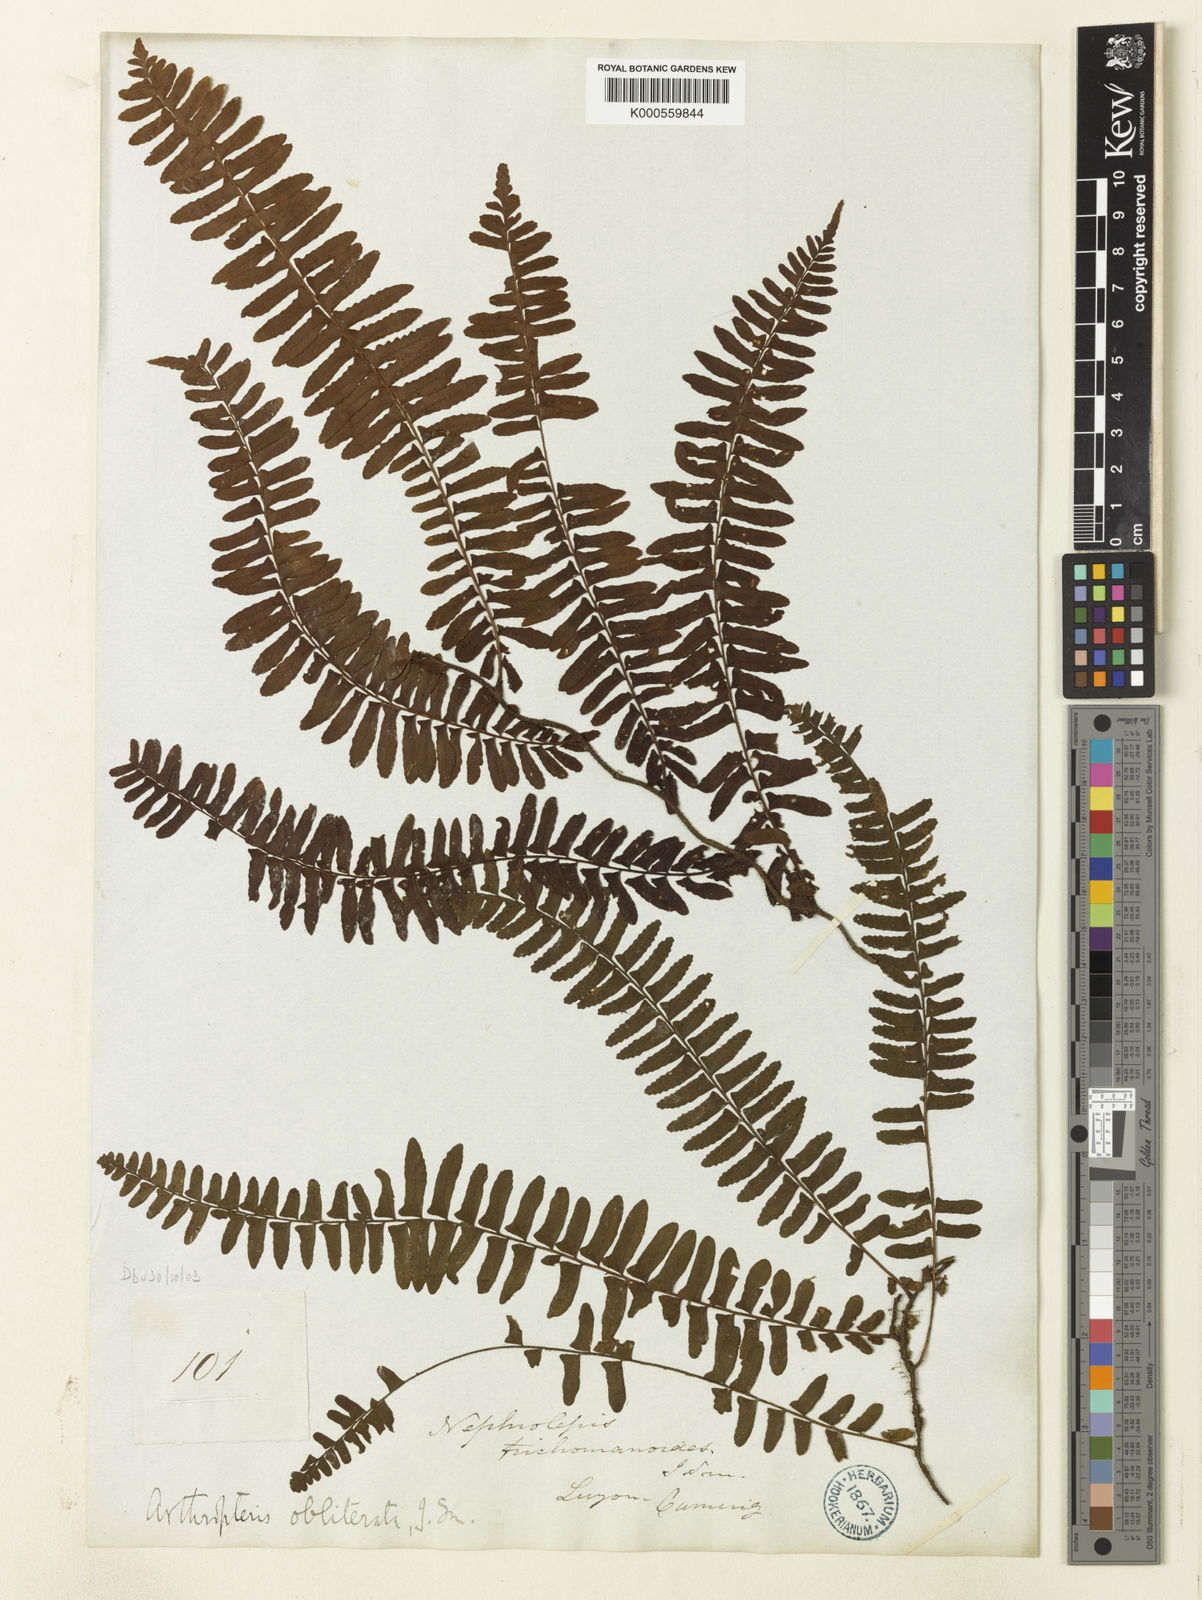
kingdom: Plantae
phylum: Tracheophyta
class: Polypodiopsida
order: Polypodiales
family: Tectariaceae
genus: Arthropteris
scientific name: Arthropteris beckleri
